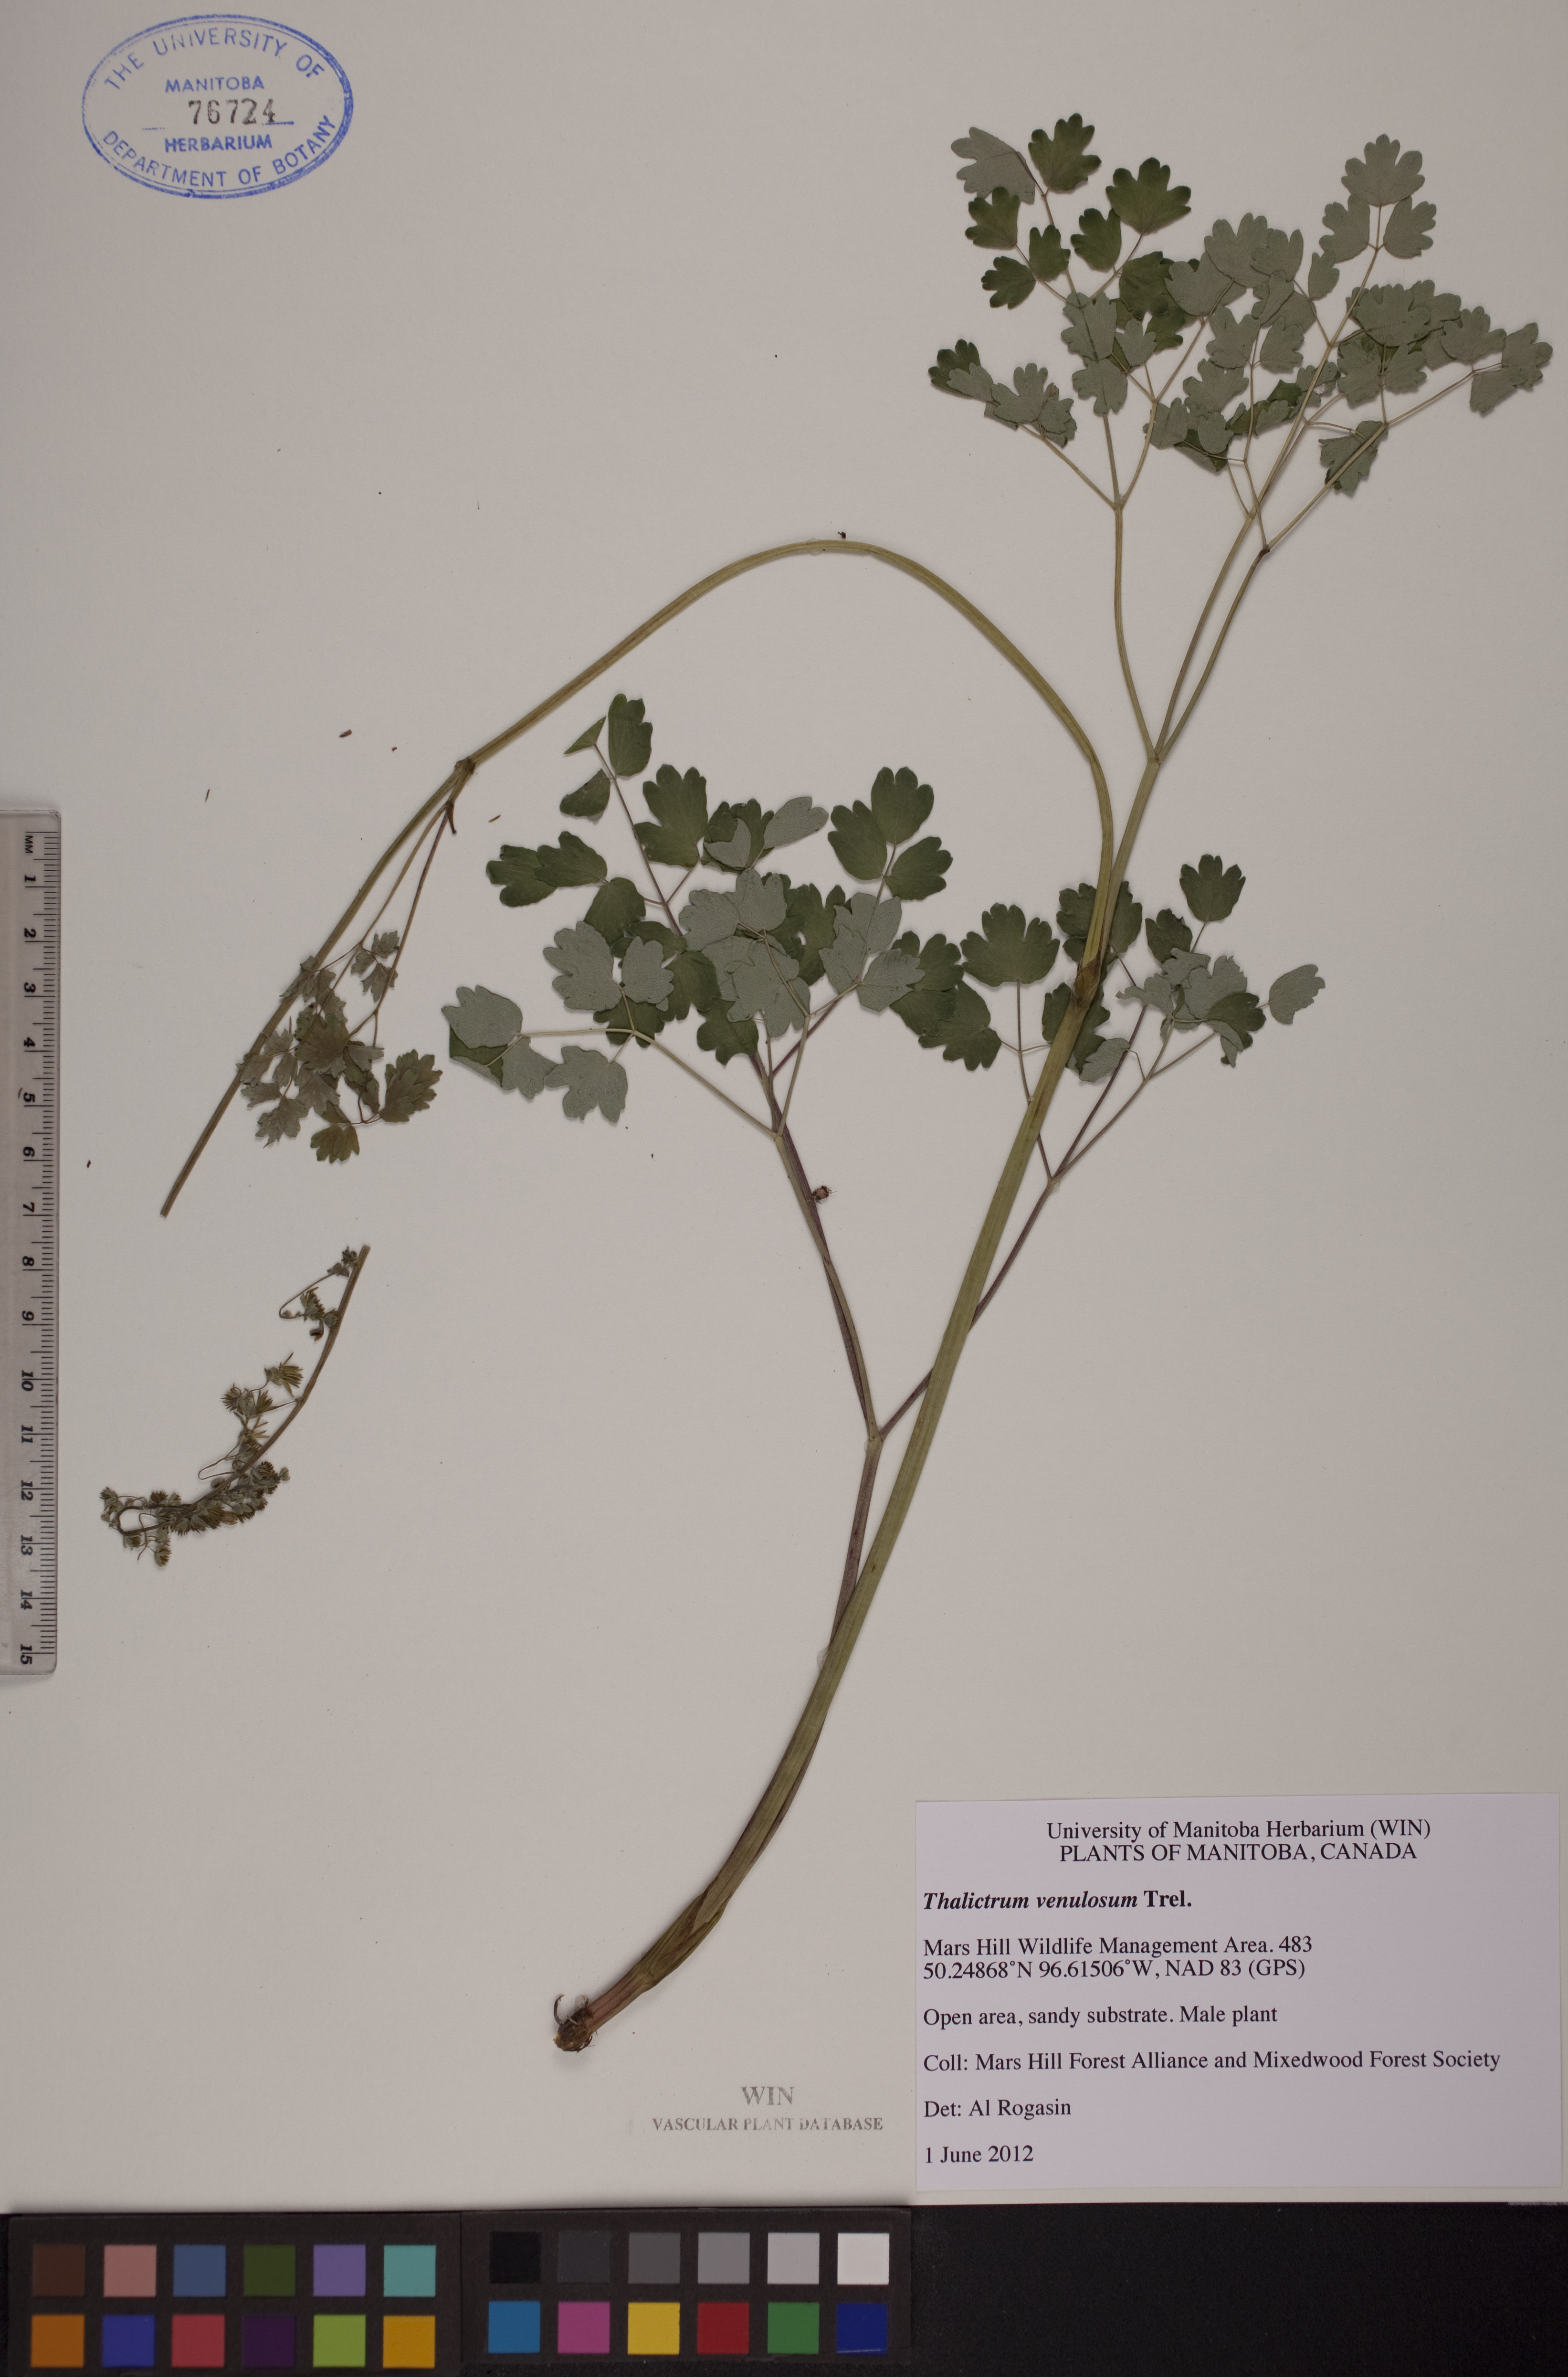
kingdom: Plantae
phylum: Tracheophyta
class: Magnoliopsida
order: Ranunculales
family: Ranunculaceae
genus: Thalictrum
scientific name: Thalictrum venulosum
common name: Early meadow-rue
